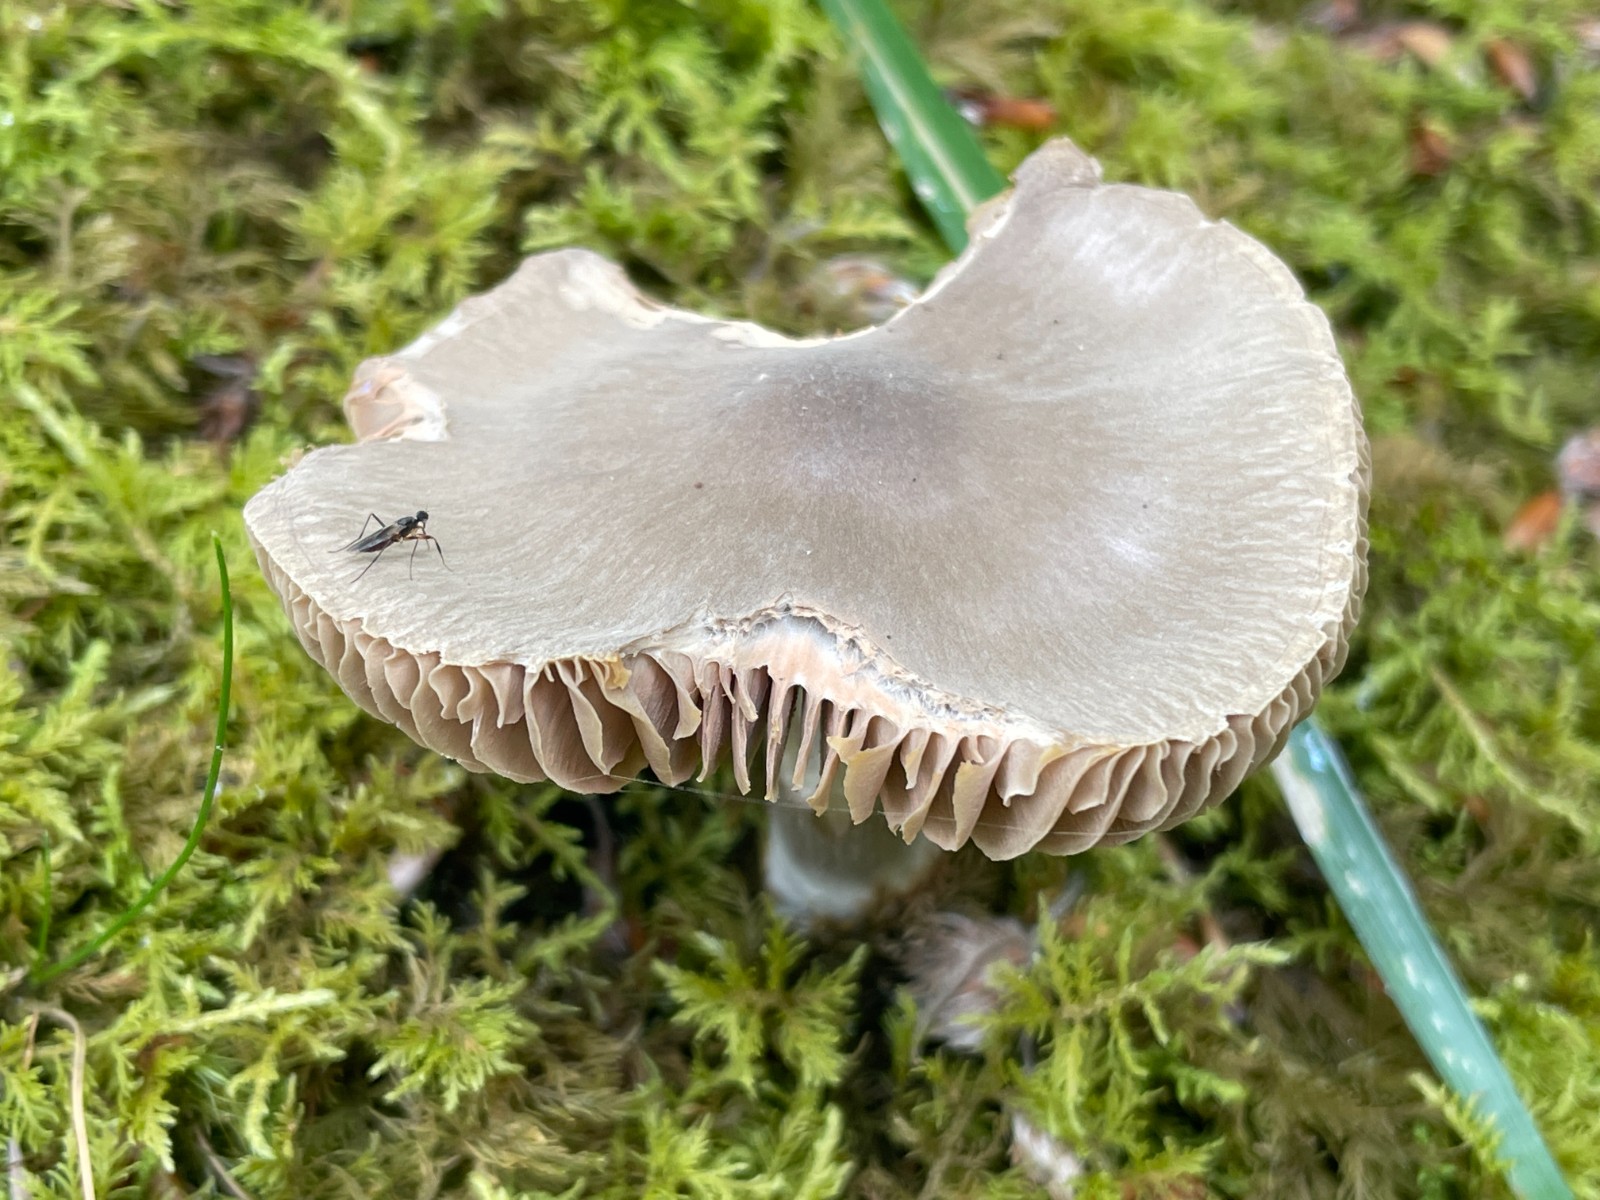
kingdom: Fungi
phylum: Basidiomycota
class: Agaricomycetes
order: Agaricales
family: Entolomataceae
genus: Entoloma
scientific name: Entoloma
